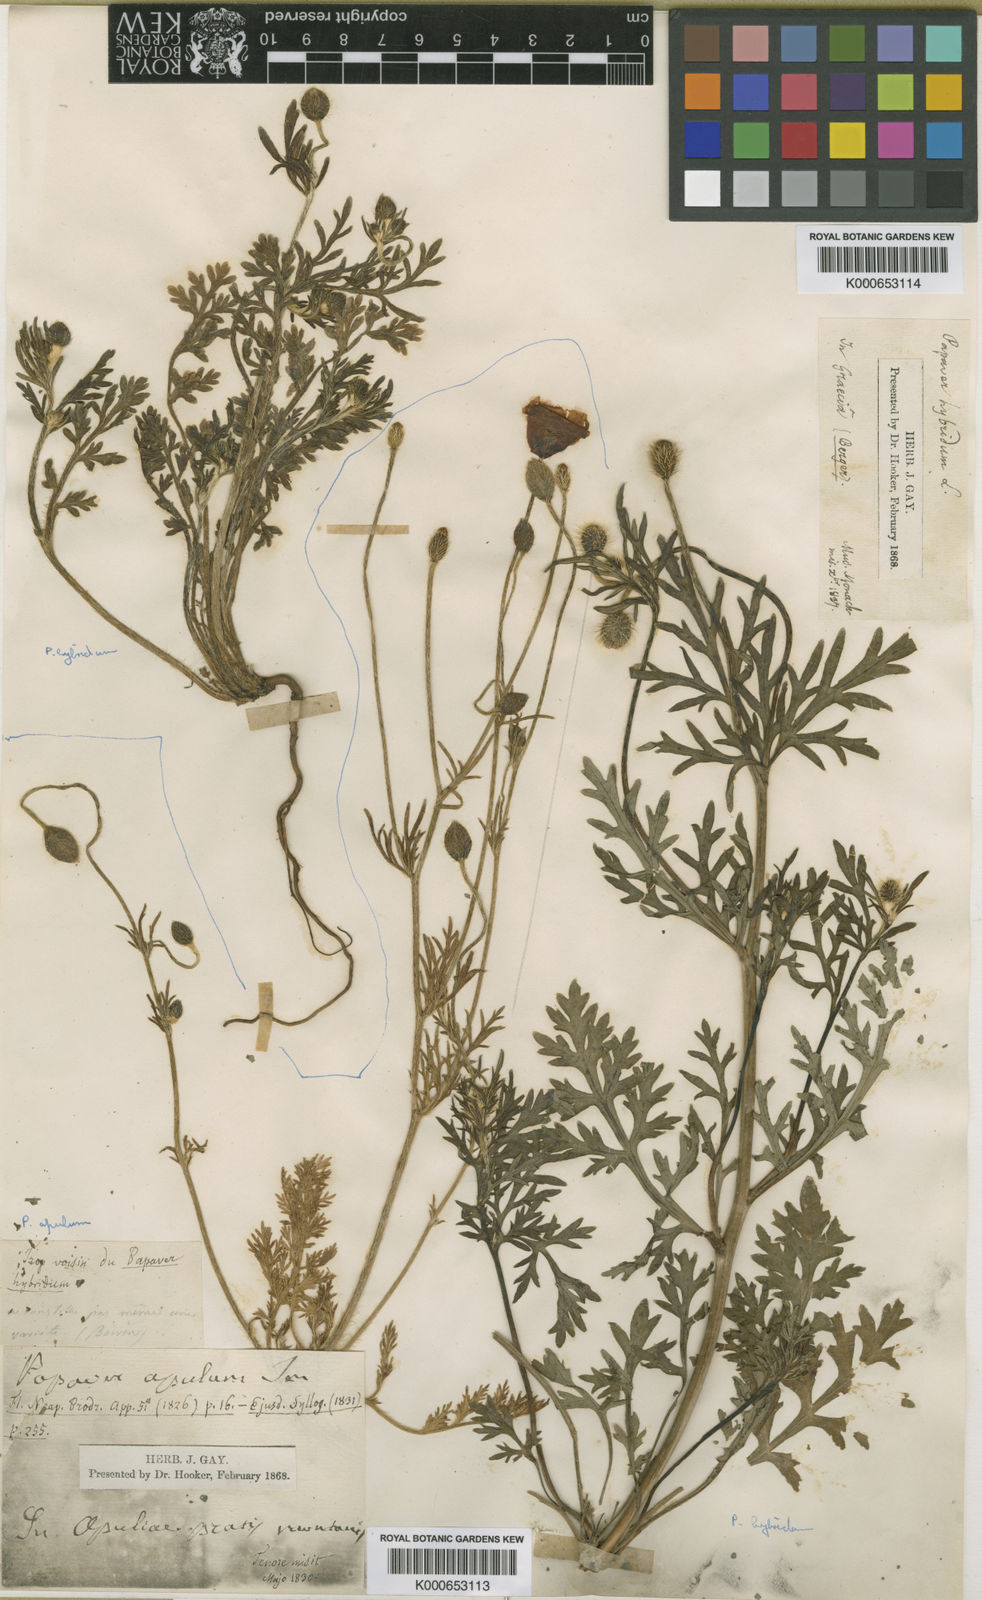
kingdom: Plantae
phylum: Tracheophyta
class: Magnoliopsida
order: Ranunculales
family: Papaveraceae
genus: Roemeria
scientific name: Roemeria apula
